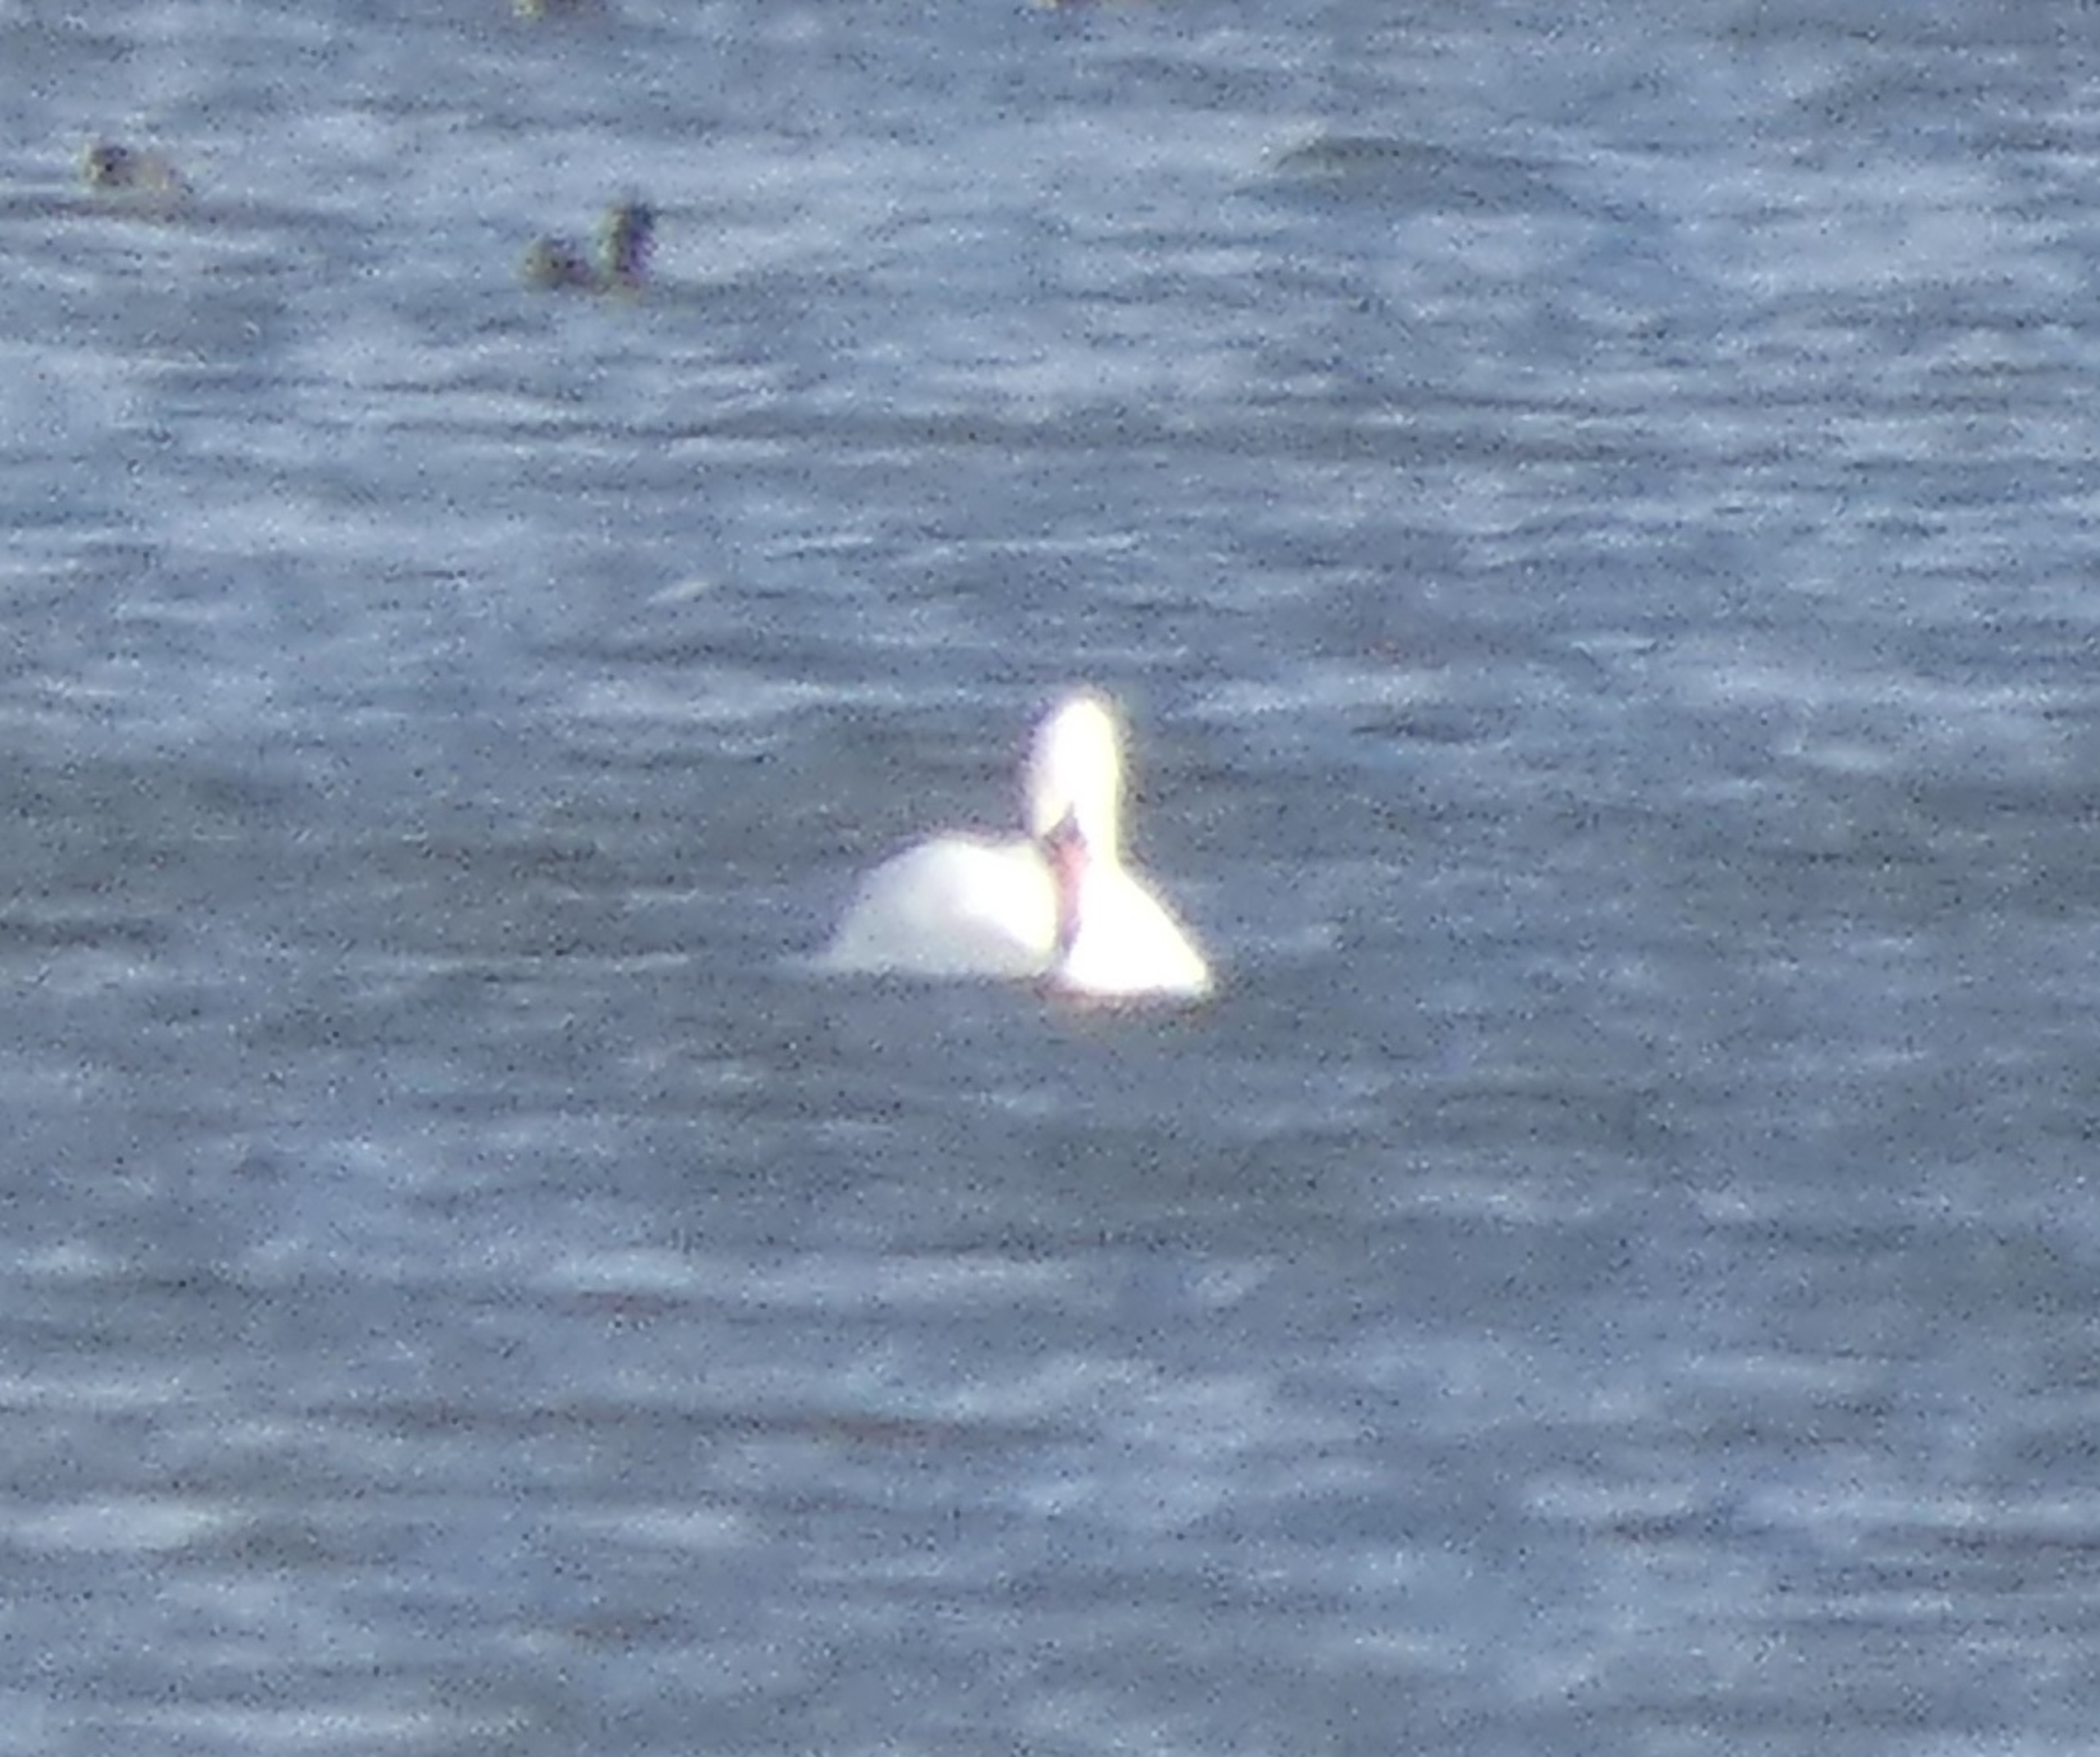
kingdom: Animalia
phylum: Chordata
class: Aves
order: Anseriformes
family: Anatidae
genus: Cygnus
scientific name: Cygnus olor
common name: Knopsvane
